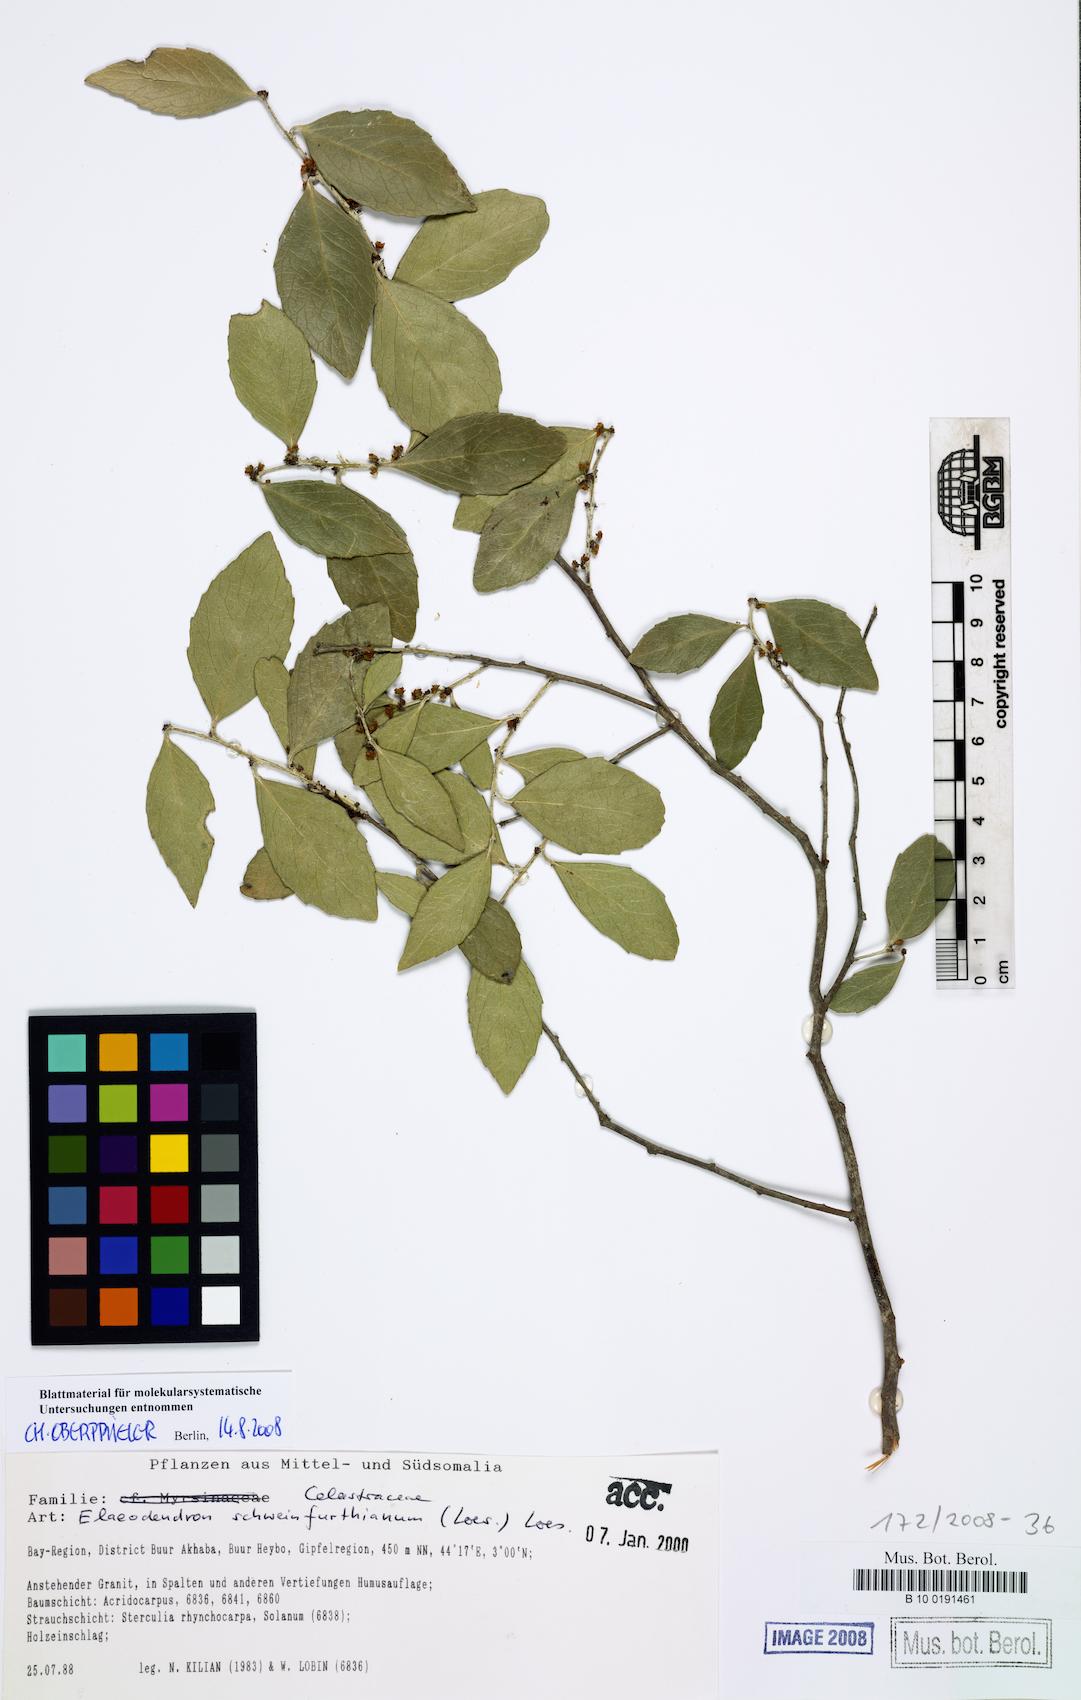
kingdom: Plantae
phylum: Tracheophyta
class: Magnoliopsida
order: Celastrales
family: Celastraceae
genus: Elaeodendron
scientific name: Elaeodendron schweinfurthianum
